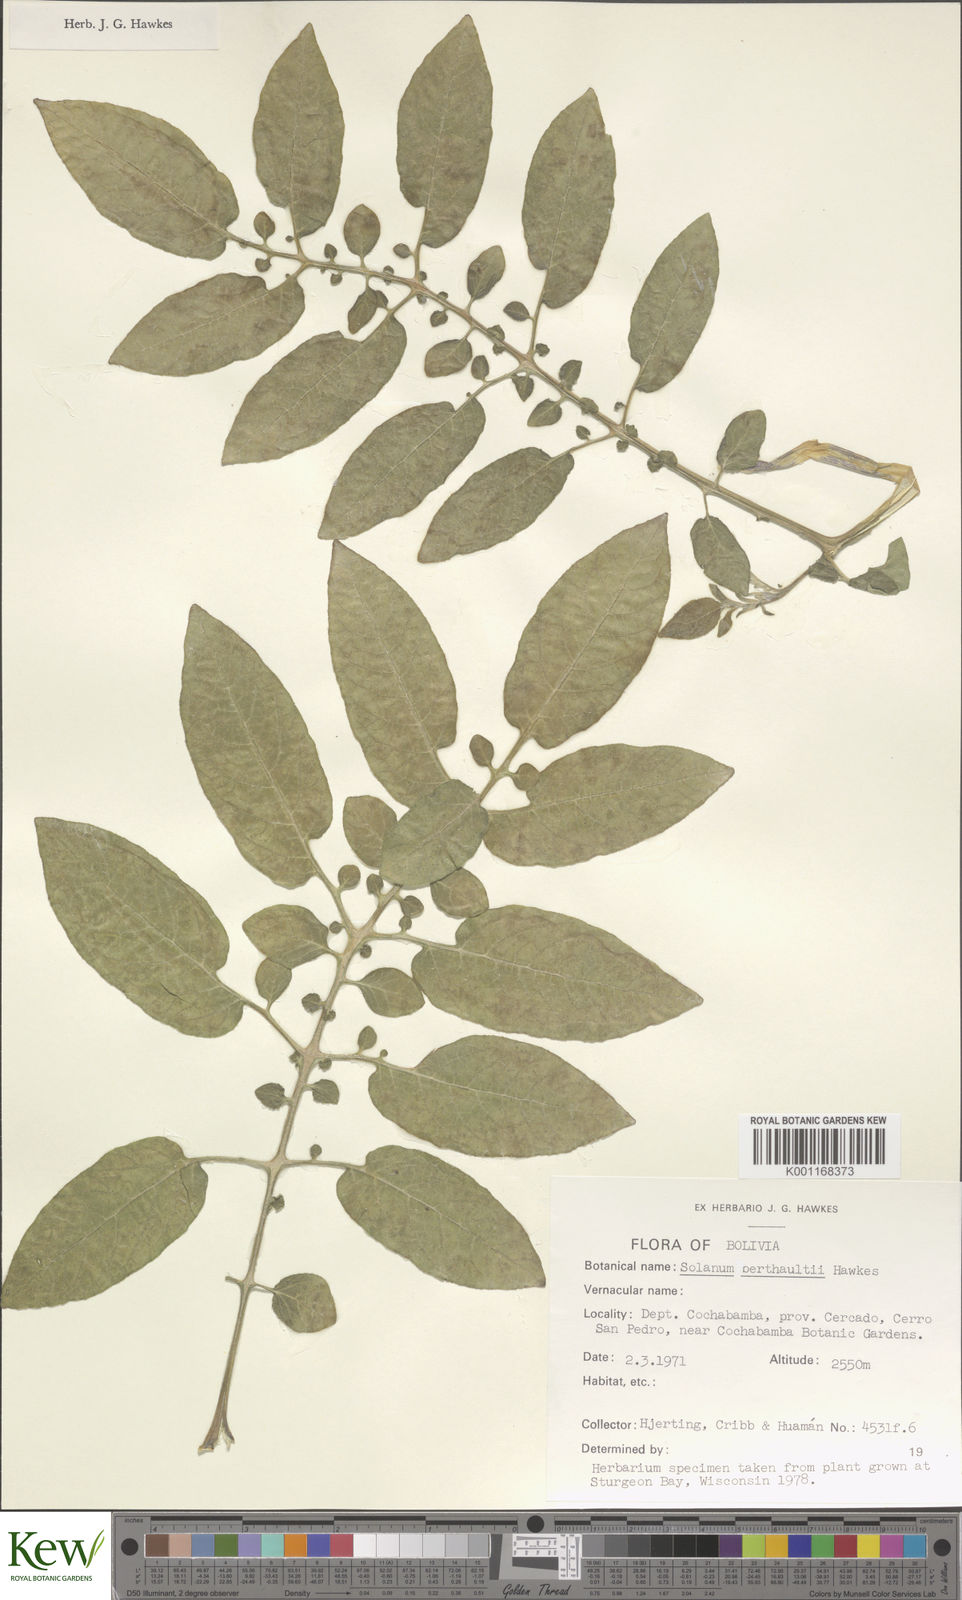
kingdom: Plantae
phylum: Tracheophyta
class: Magnoliopsida
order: Solanales
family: Solanaceae
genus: Solanum
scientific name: Solanum berthaultii
